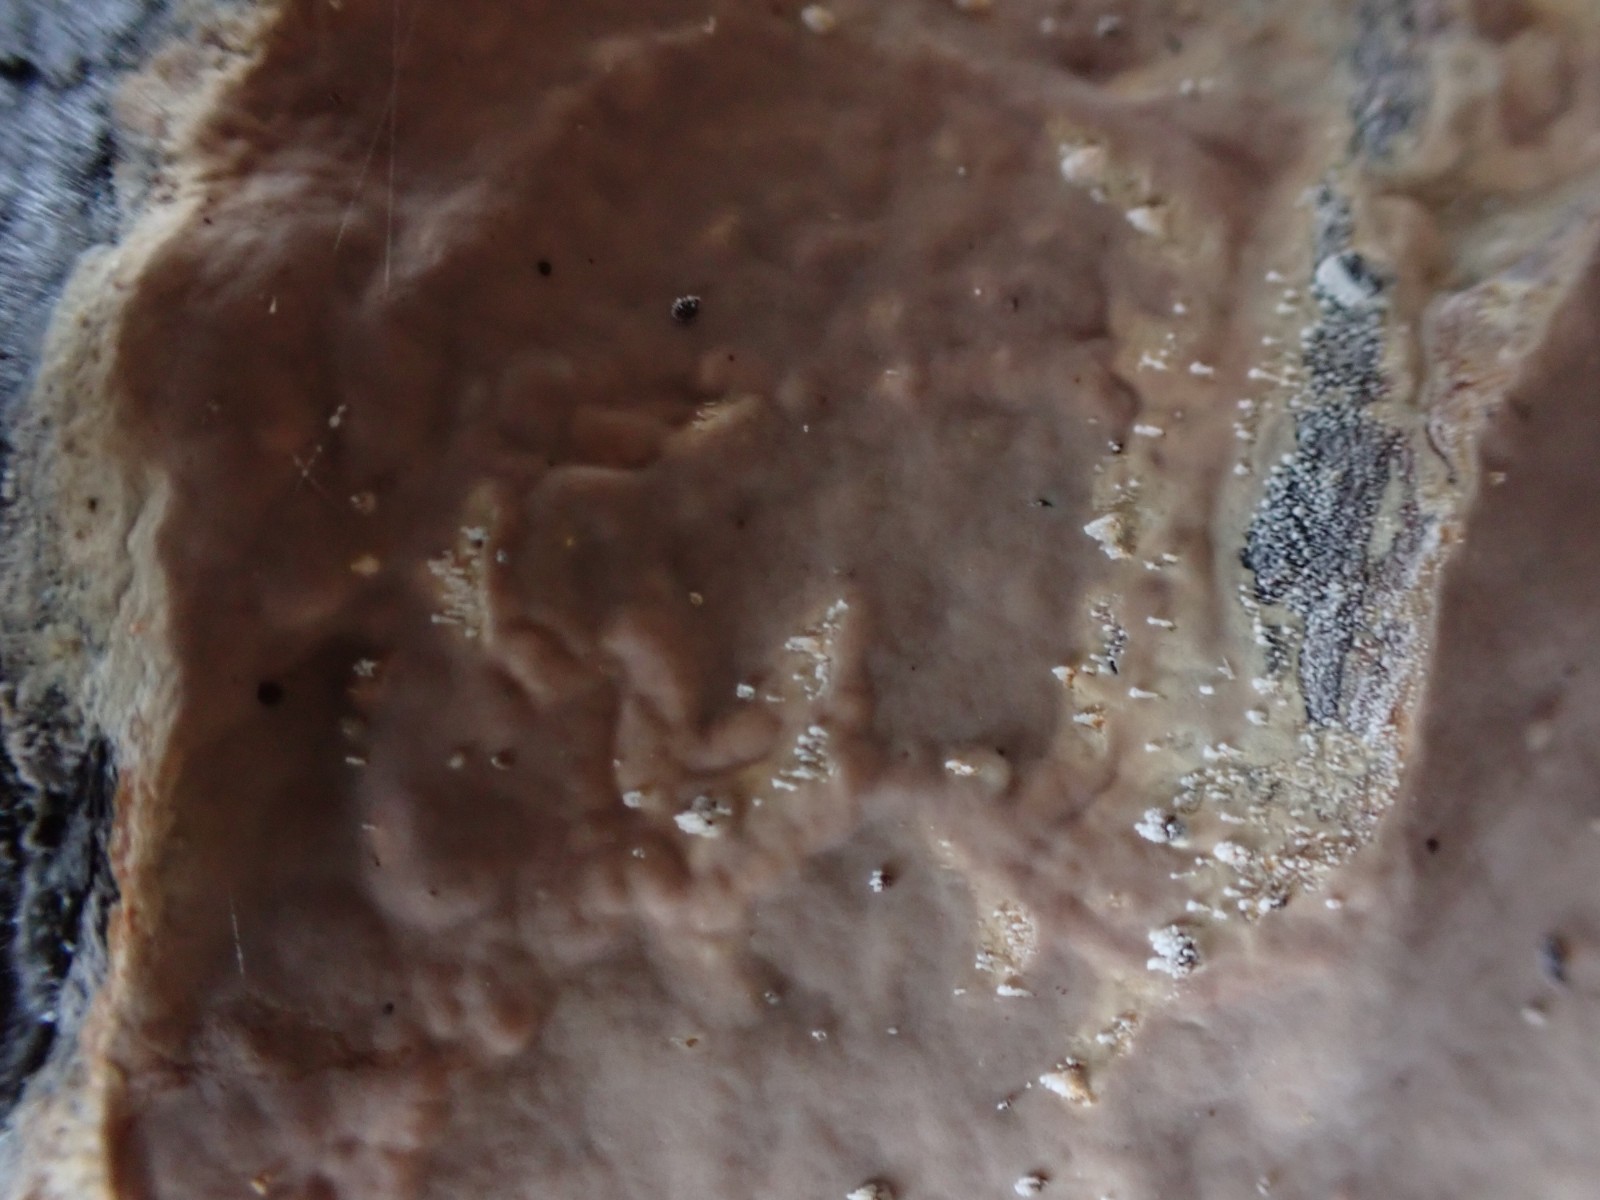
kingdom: Fungi
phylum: Basidiomycota
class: Agaricomycetes
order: Russulales
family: Peniophoraceae
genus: Scytinostroma
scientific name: Scytinostroma hemidichophyticum
